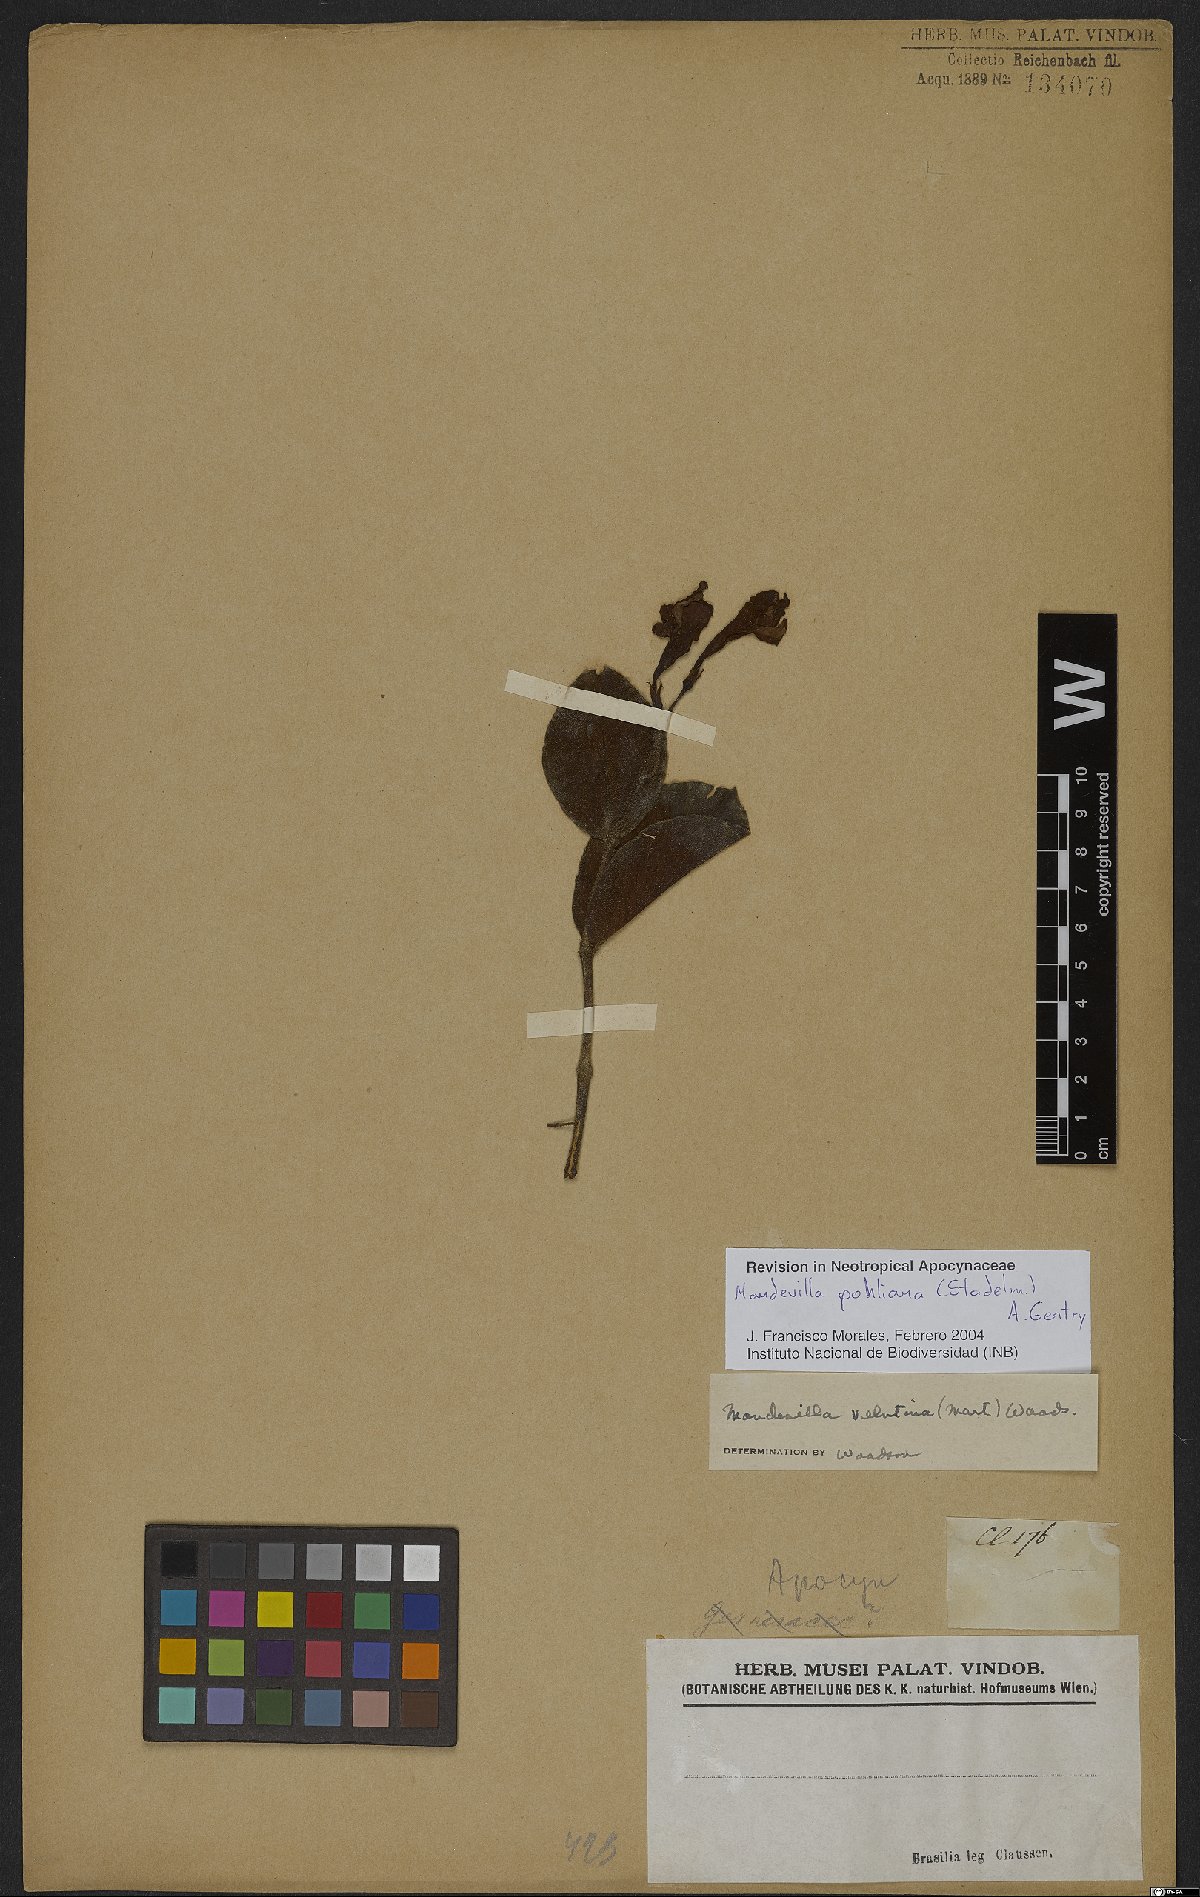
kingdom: Plantae
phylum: Tracheophyta
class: Magnoliopsida
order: Gentianales
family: Apocynaceae
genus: Mandevilla
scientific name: Mandevilla pohliana
